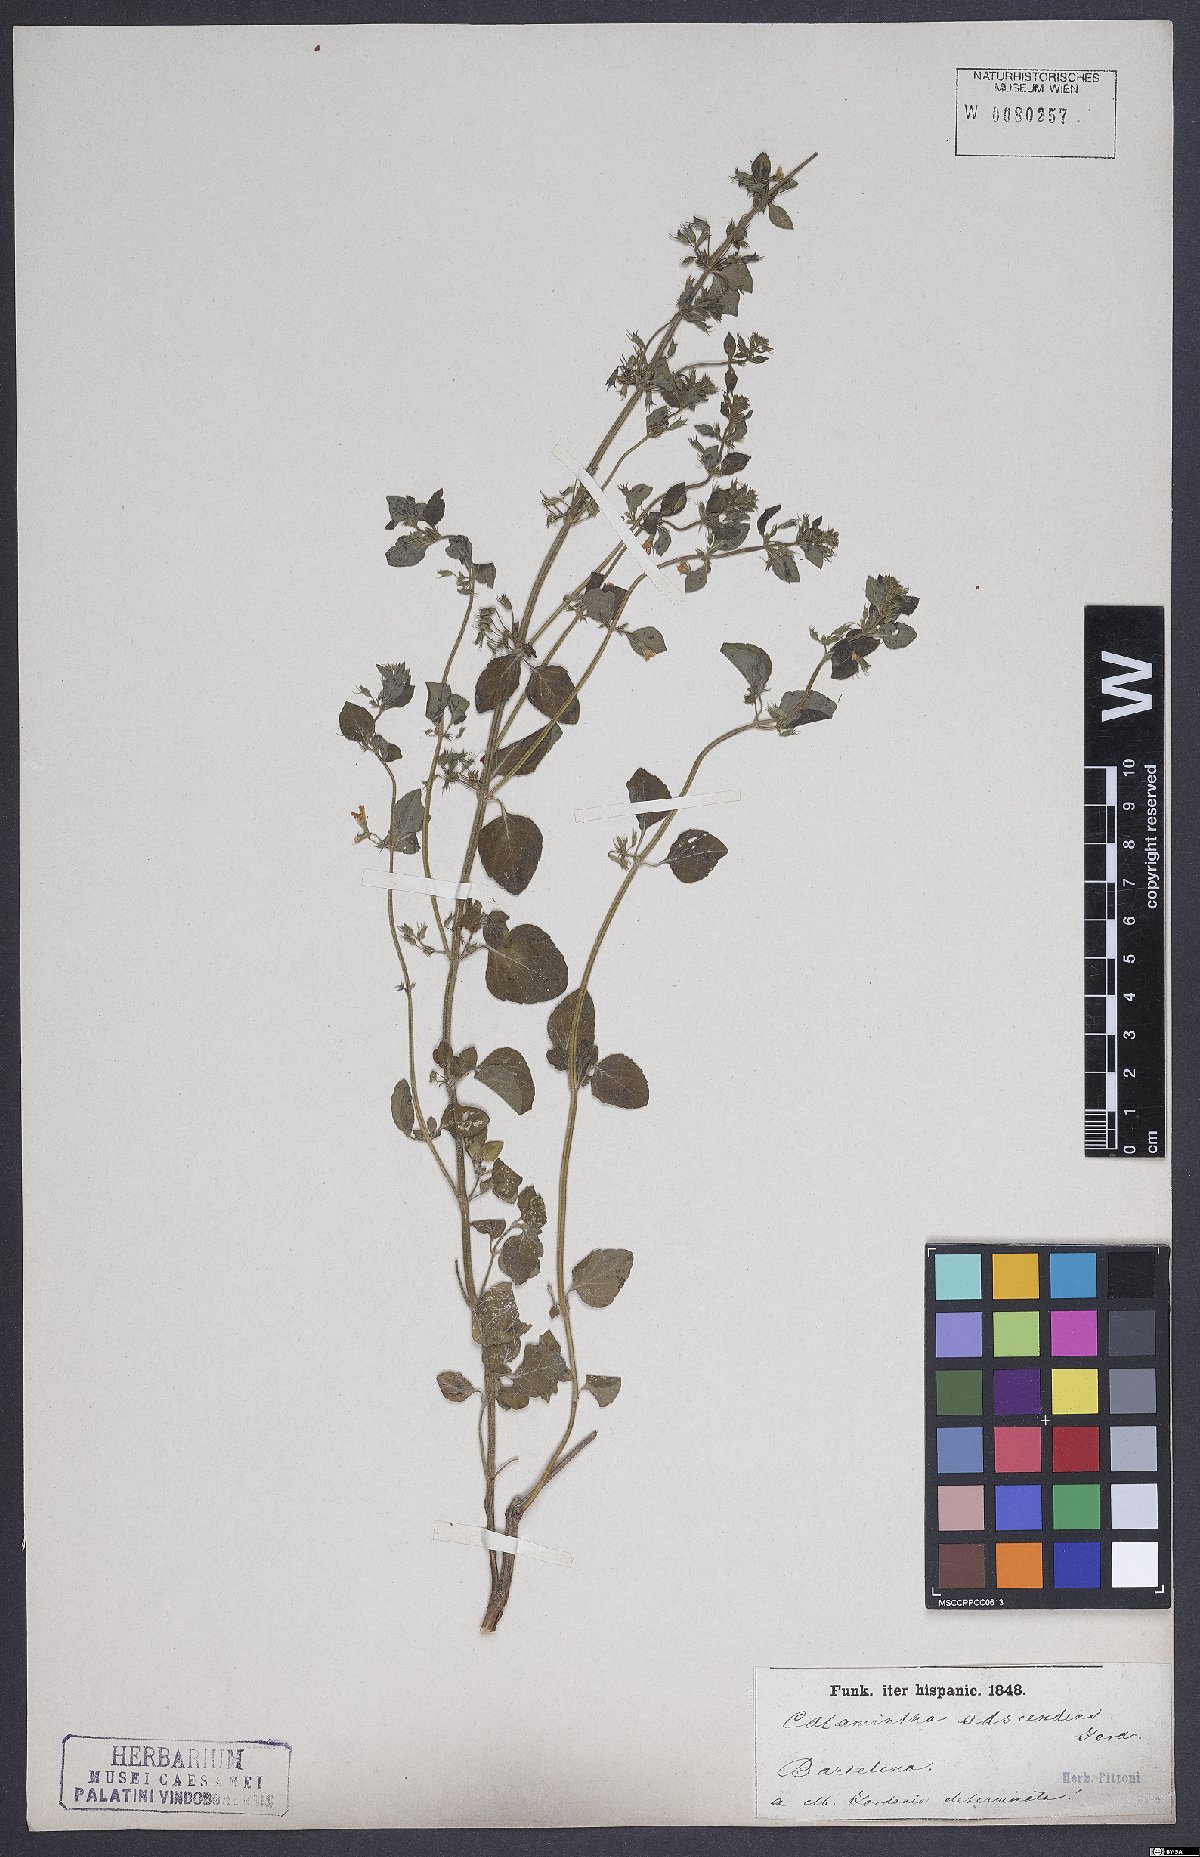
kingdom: Plantae
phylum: Tracheophyta
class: Magnoliopsida
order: Lamiales
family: Lamiaceae
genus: Clinopodium
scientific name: Clinopodium menthifolium
